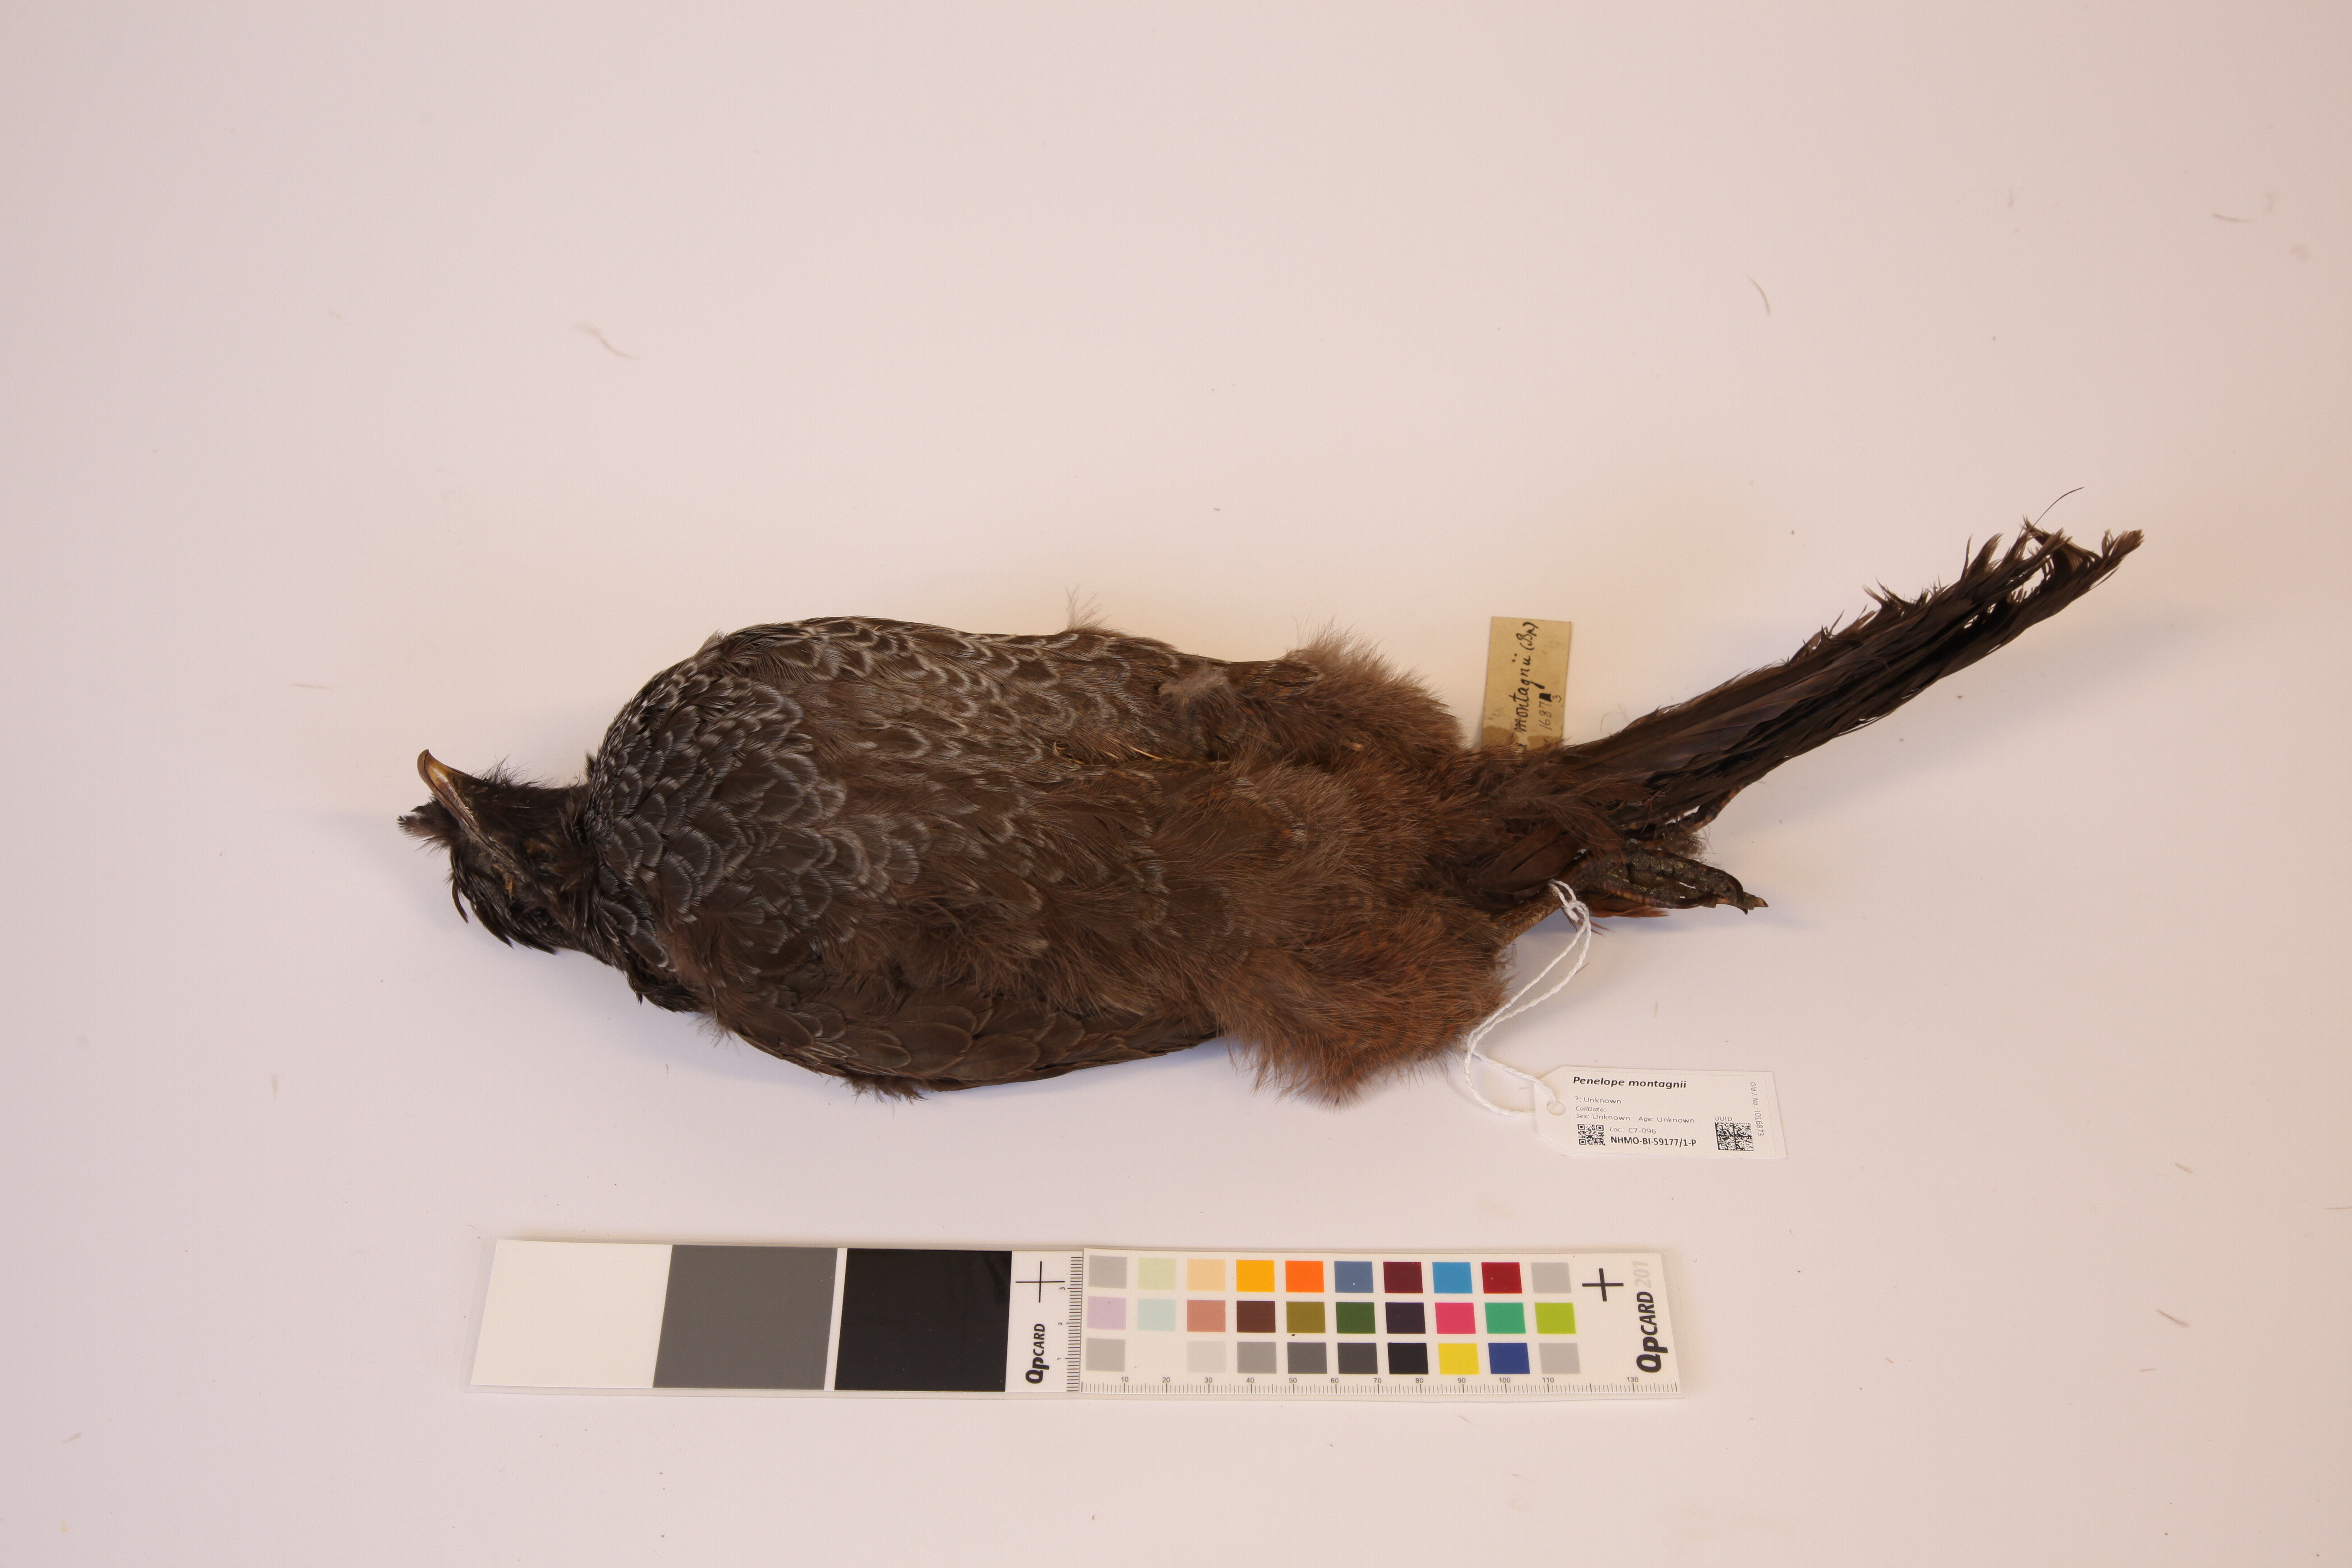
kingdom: Animalia
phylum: Chordata
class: Aves
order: Galliformes
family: Cracidae
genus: Penelope
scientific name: Penelope montagnii
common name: Andean guan
